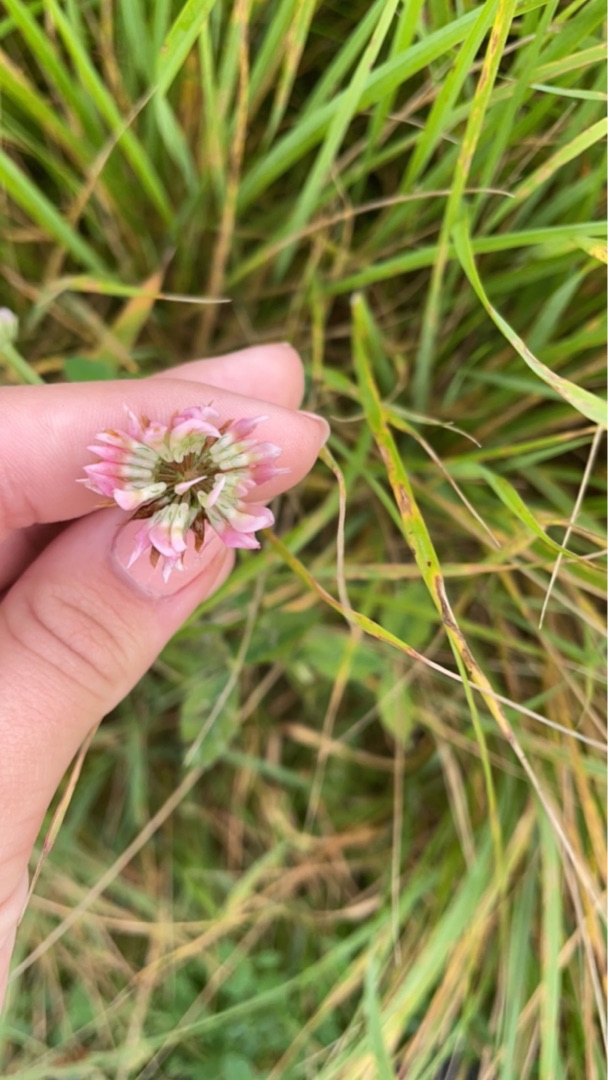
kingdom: Plantae
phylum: Tracheophyta
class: Magnoliopsida
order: Fabales
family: Fabaceae
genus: Trifolium
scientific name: Trifolium hybridum
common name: Alsike-kløver
